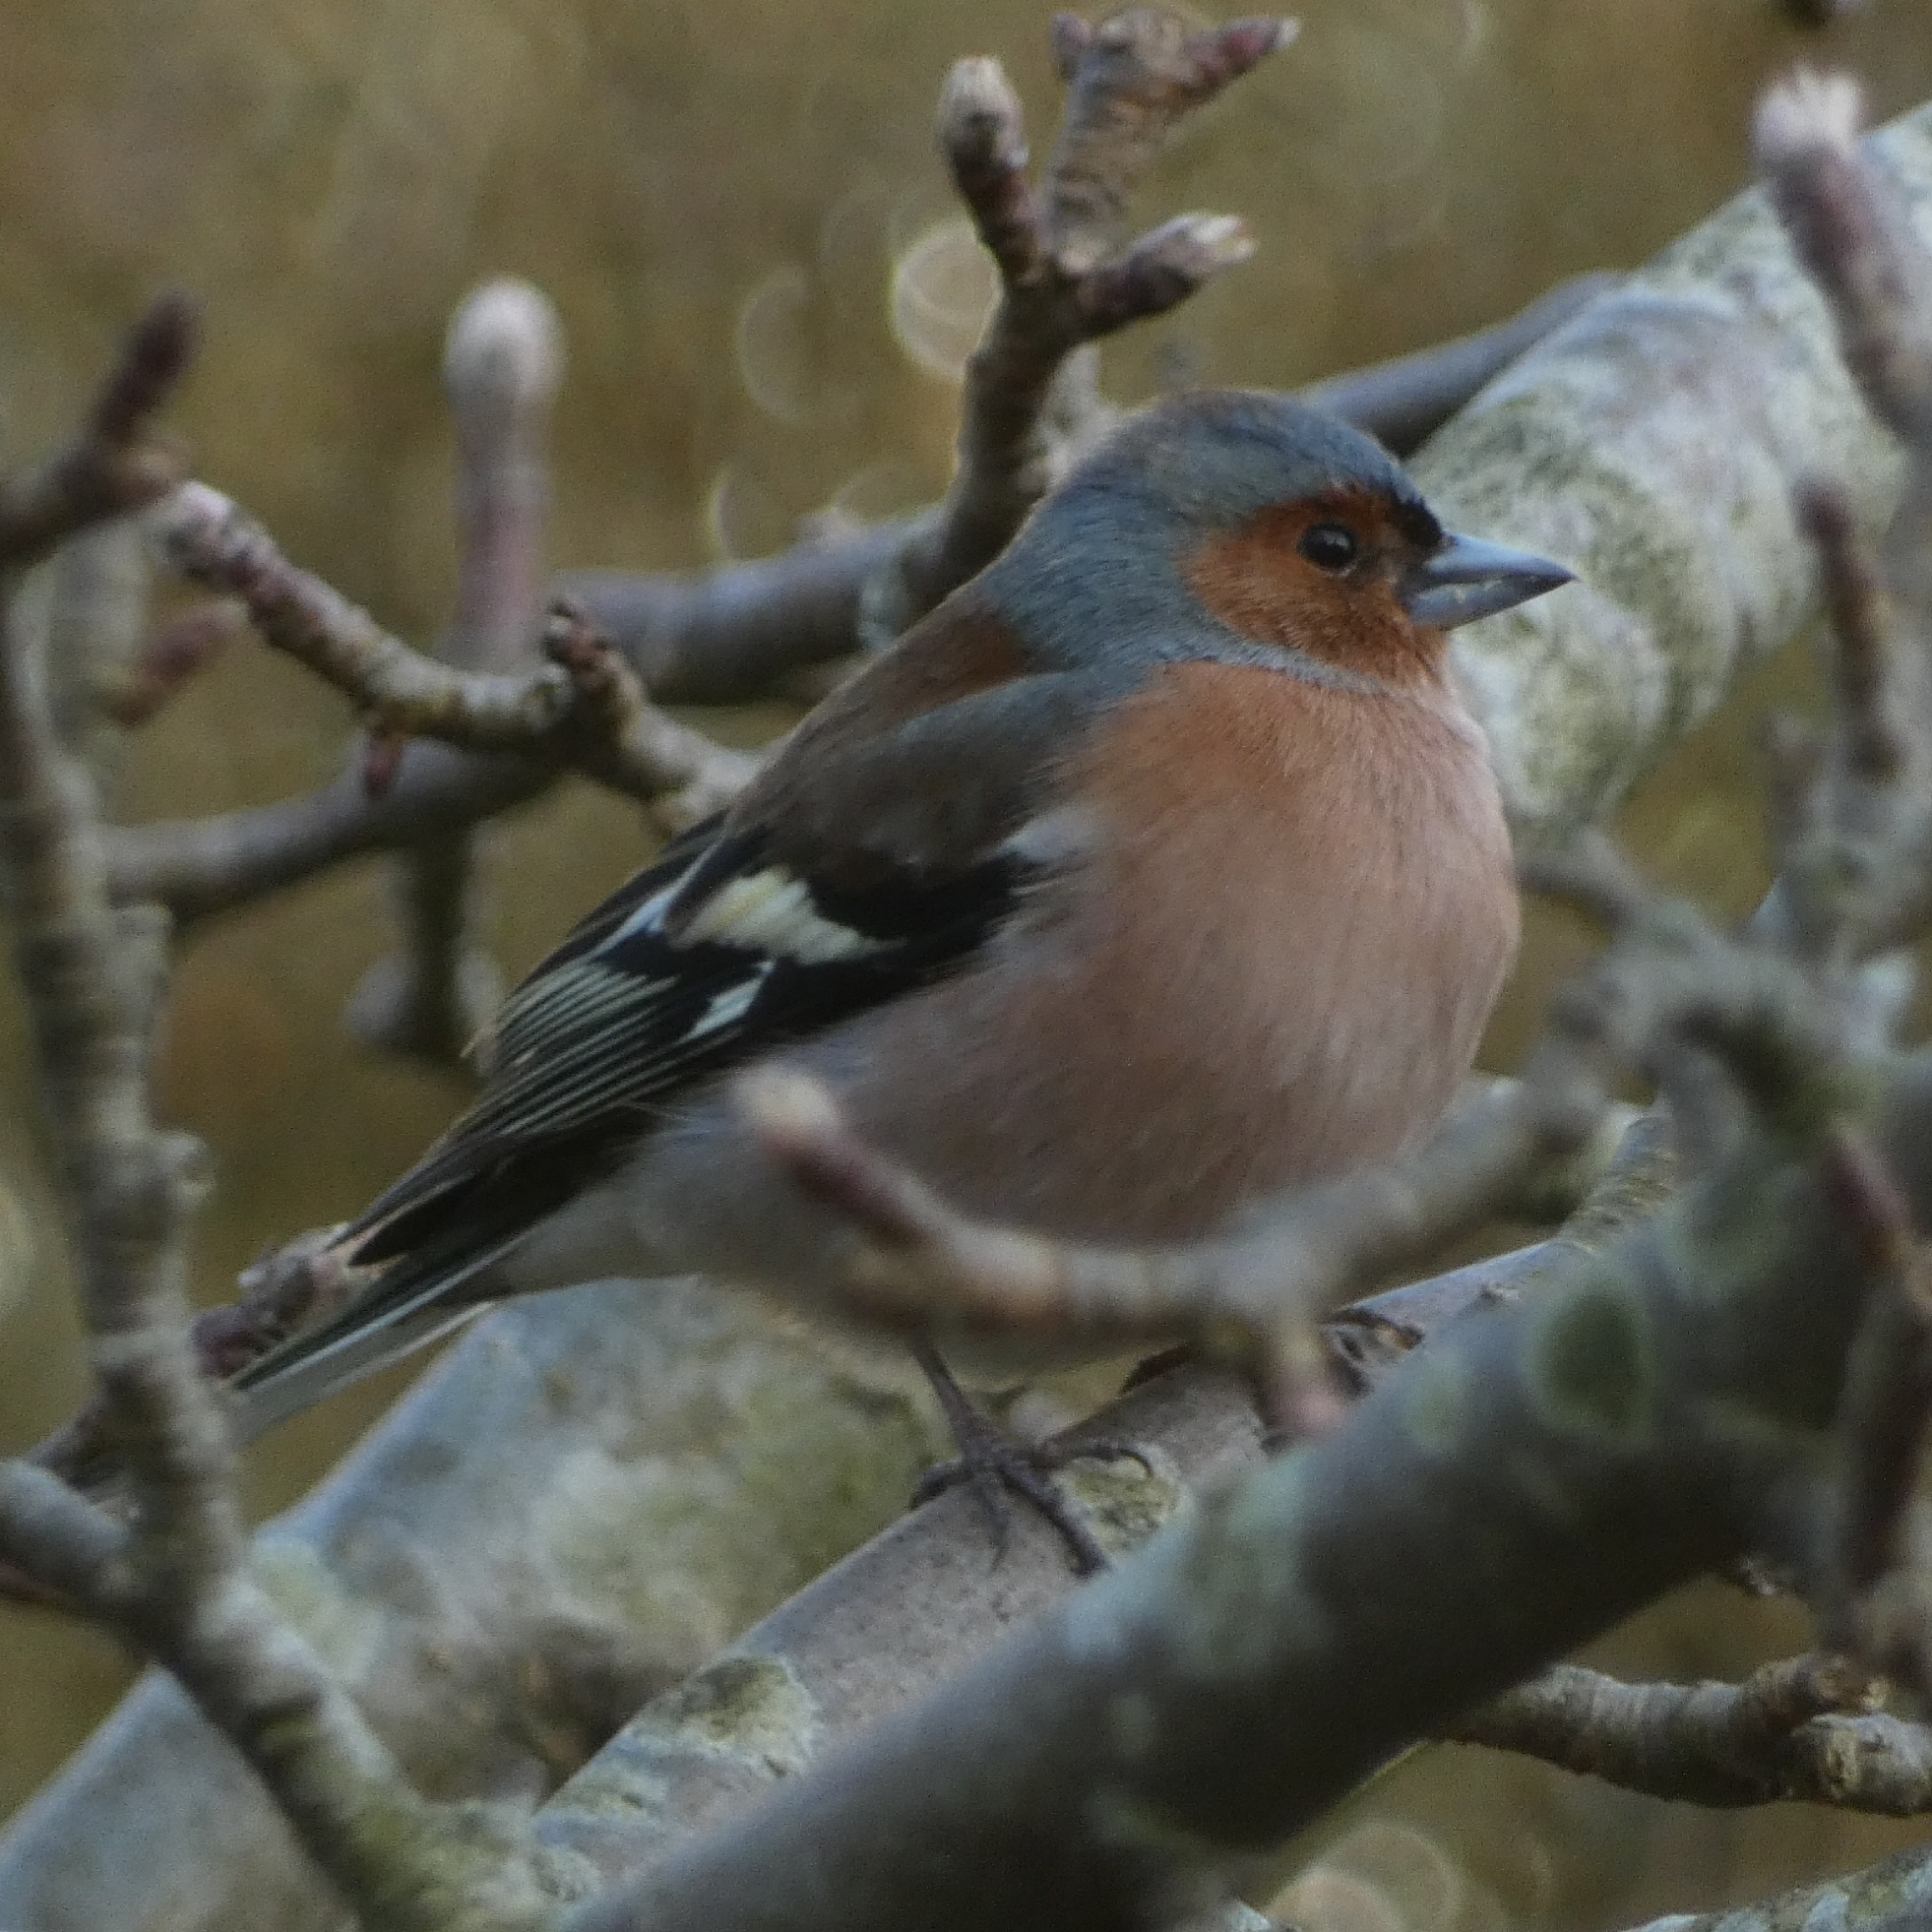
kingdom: Animalia
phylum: Chordata
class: Aves
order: Passeriformes
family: Fringillidae
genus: Fringilla
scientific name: Fringilla coelebs
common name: Bogfinke
